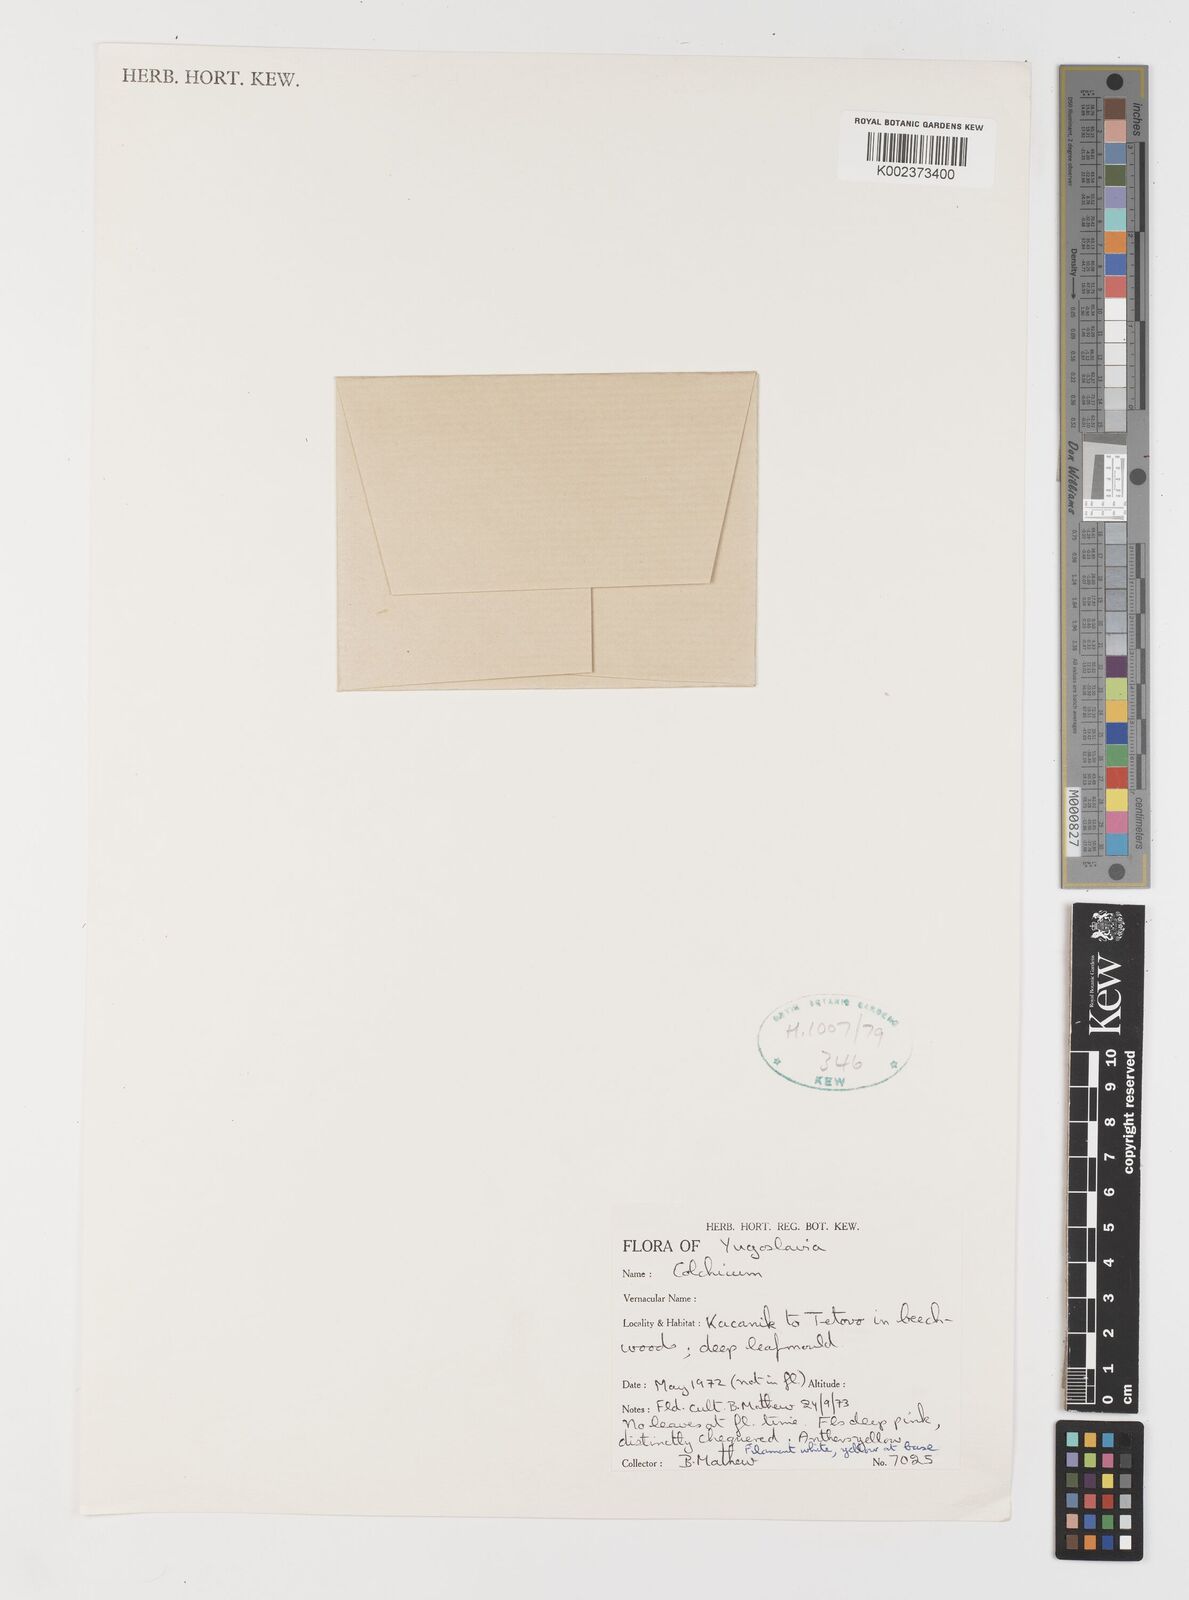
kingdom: Plantae
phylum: Tracheophyta
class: Liliopsida
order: Liliales
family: Colchicaceae
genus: Colchicum
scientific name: Colchicum
